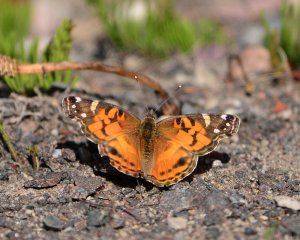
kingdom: Animalia
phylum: Arthropoda
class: Insecta
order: Lepidoptera
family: Nymphalidae
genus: Vanessa
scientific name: Vanessa virginiensis
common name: American Lady
